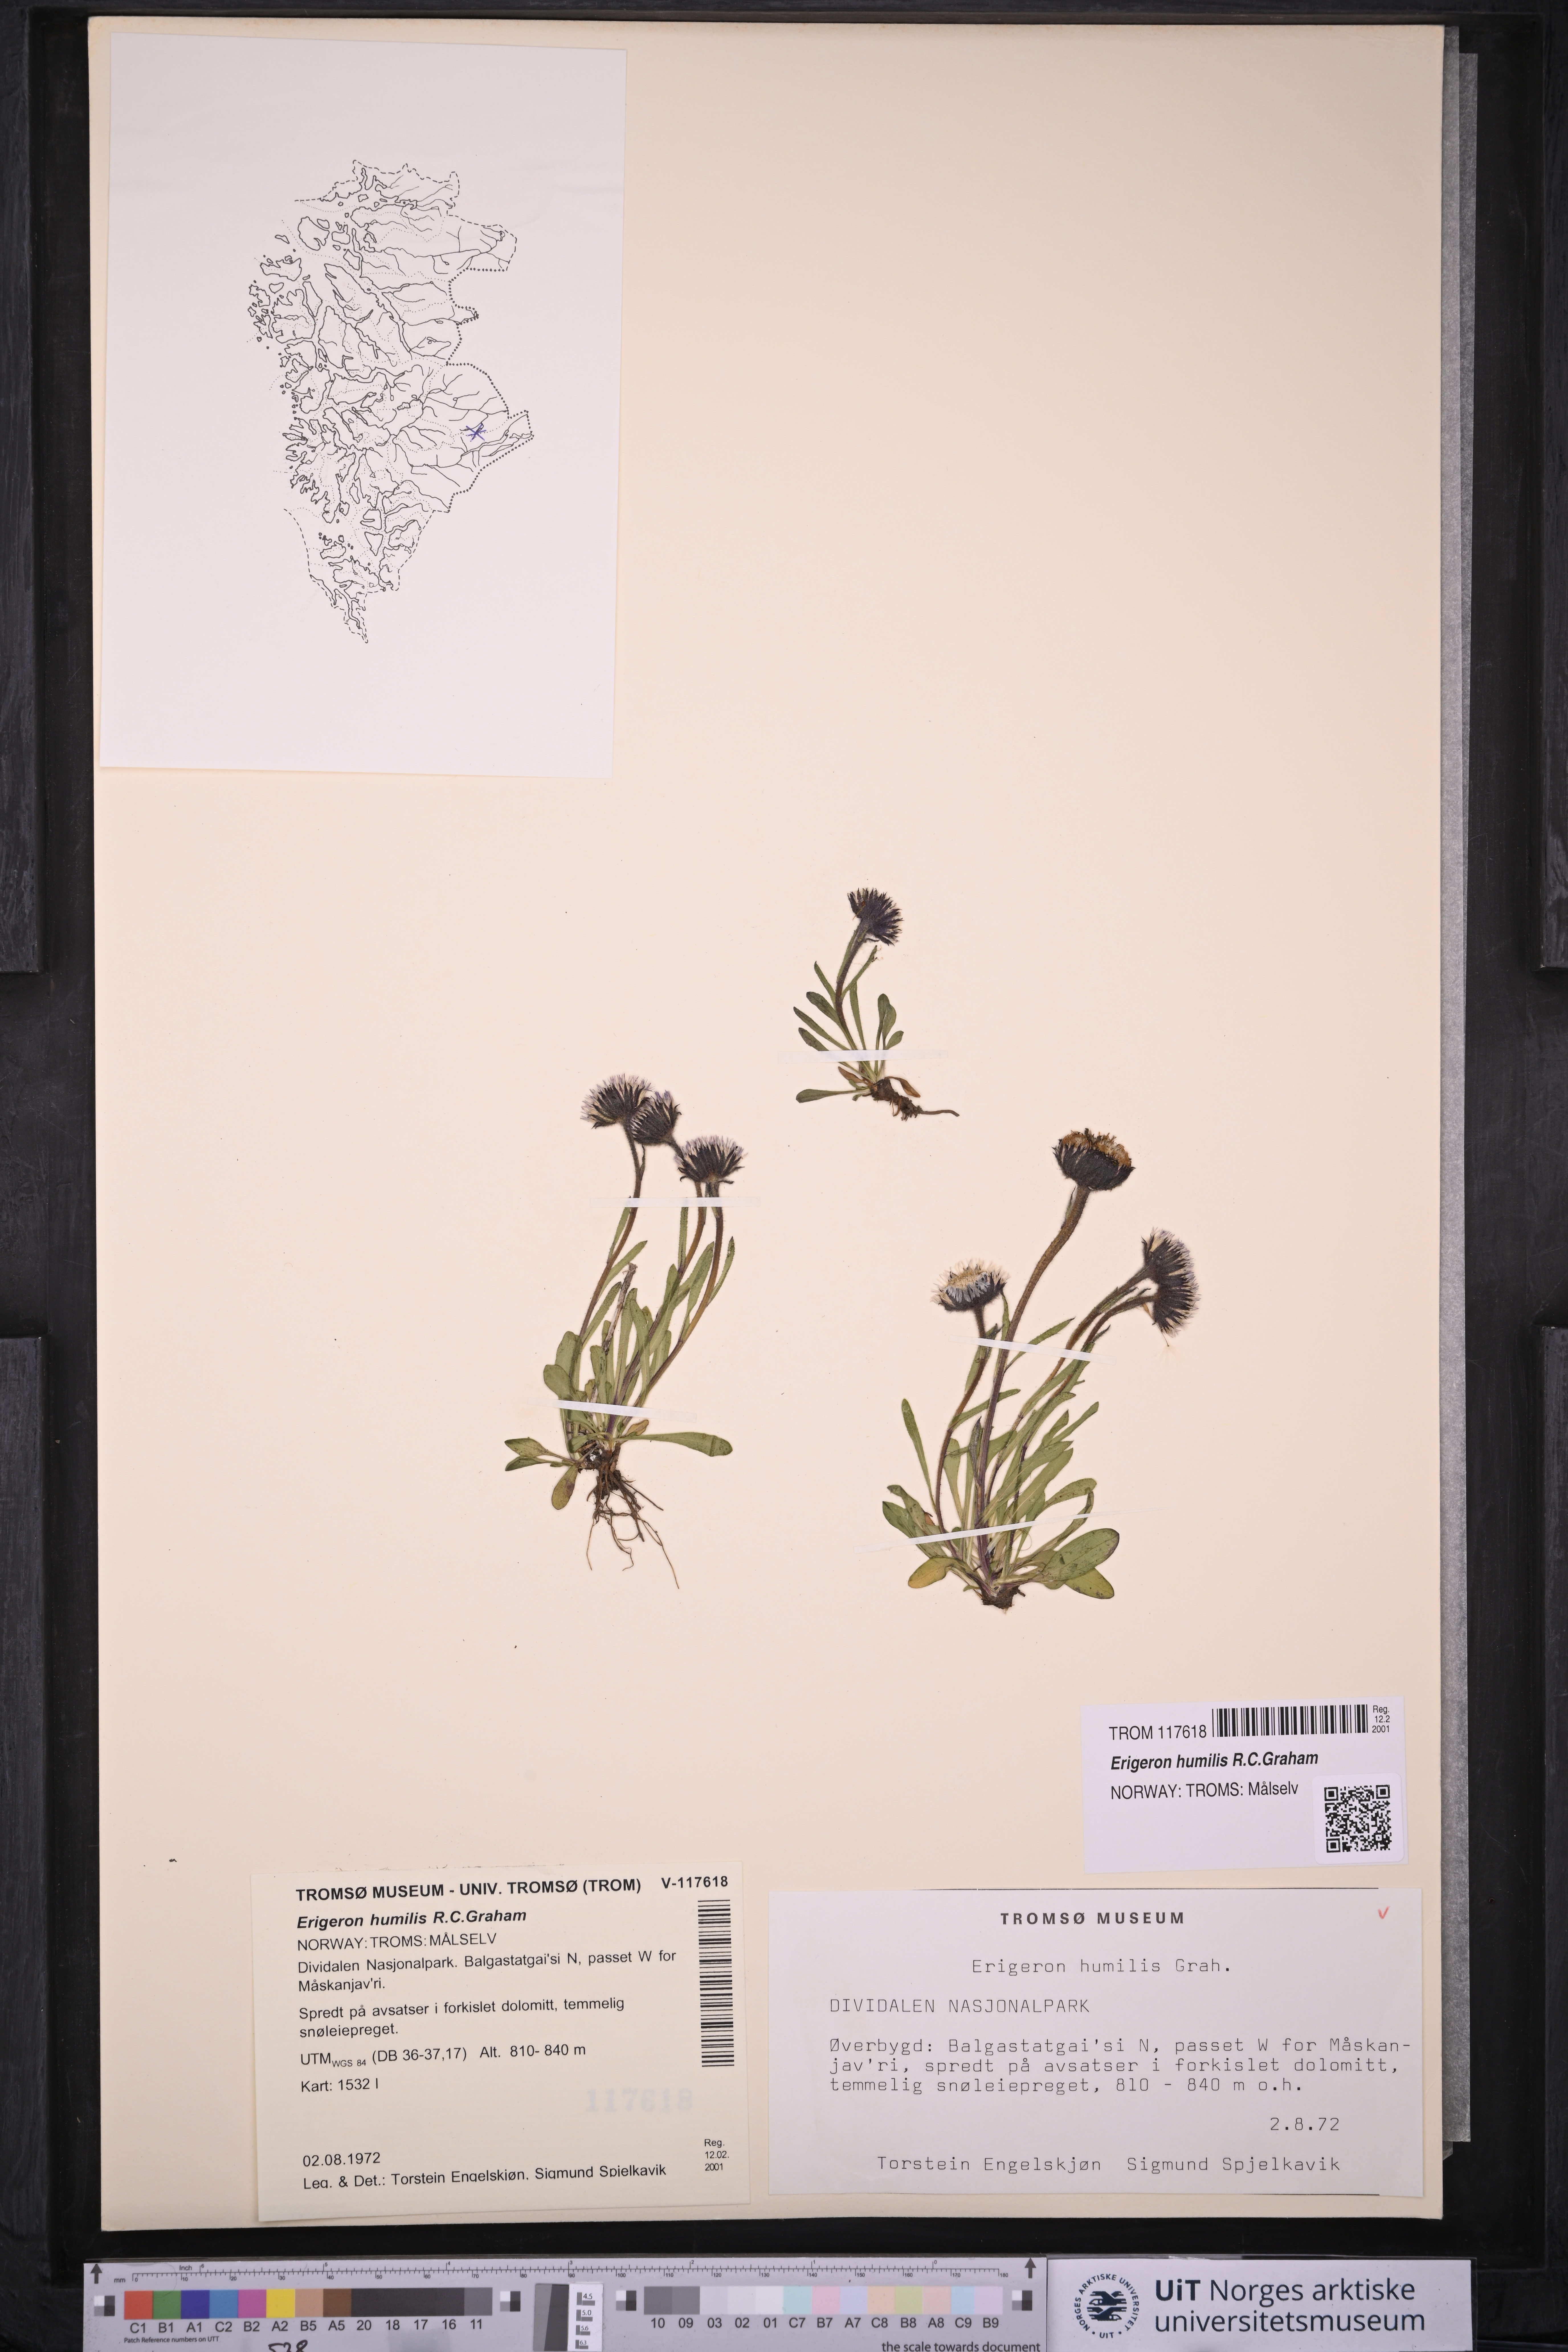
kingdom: Plantae
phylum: Tracheophyta
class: Magnoliopsida
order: Asterales
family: Asteraceae
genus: Erigeron
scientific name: Erigeron humilis
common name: Arctic-alpine fleabane
